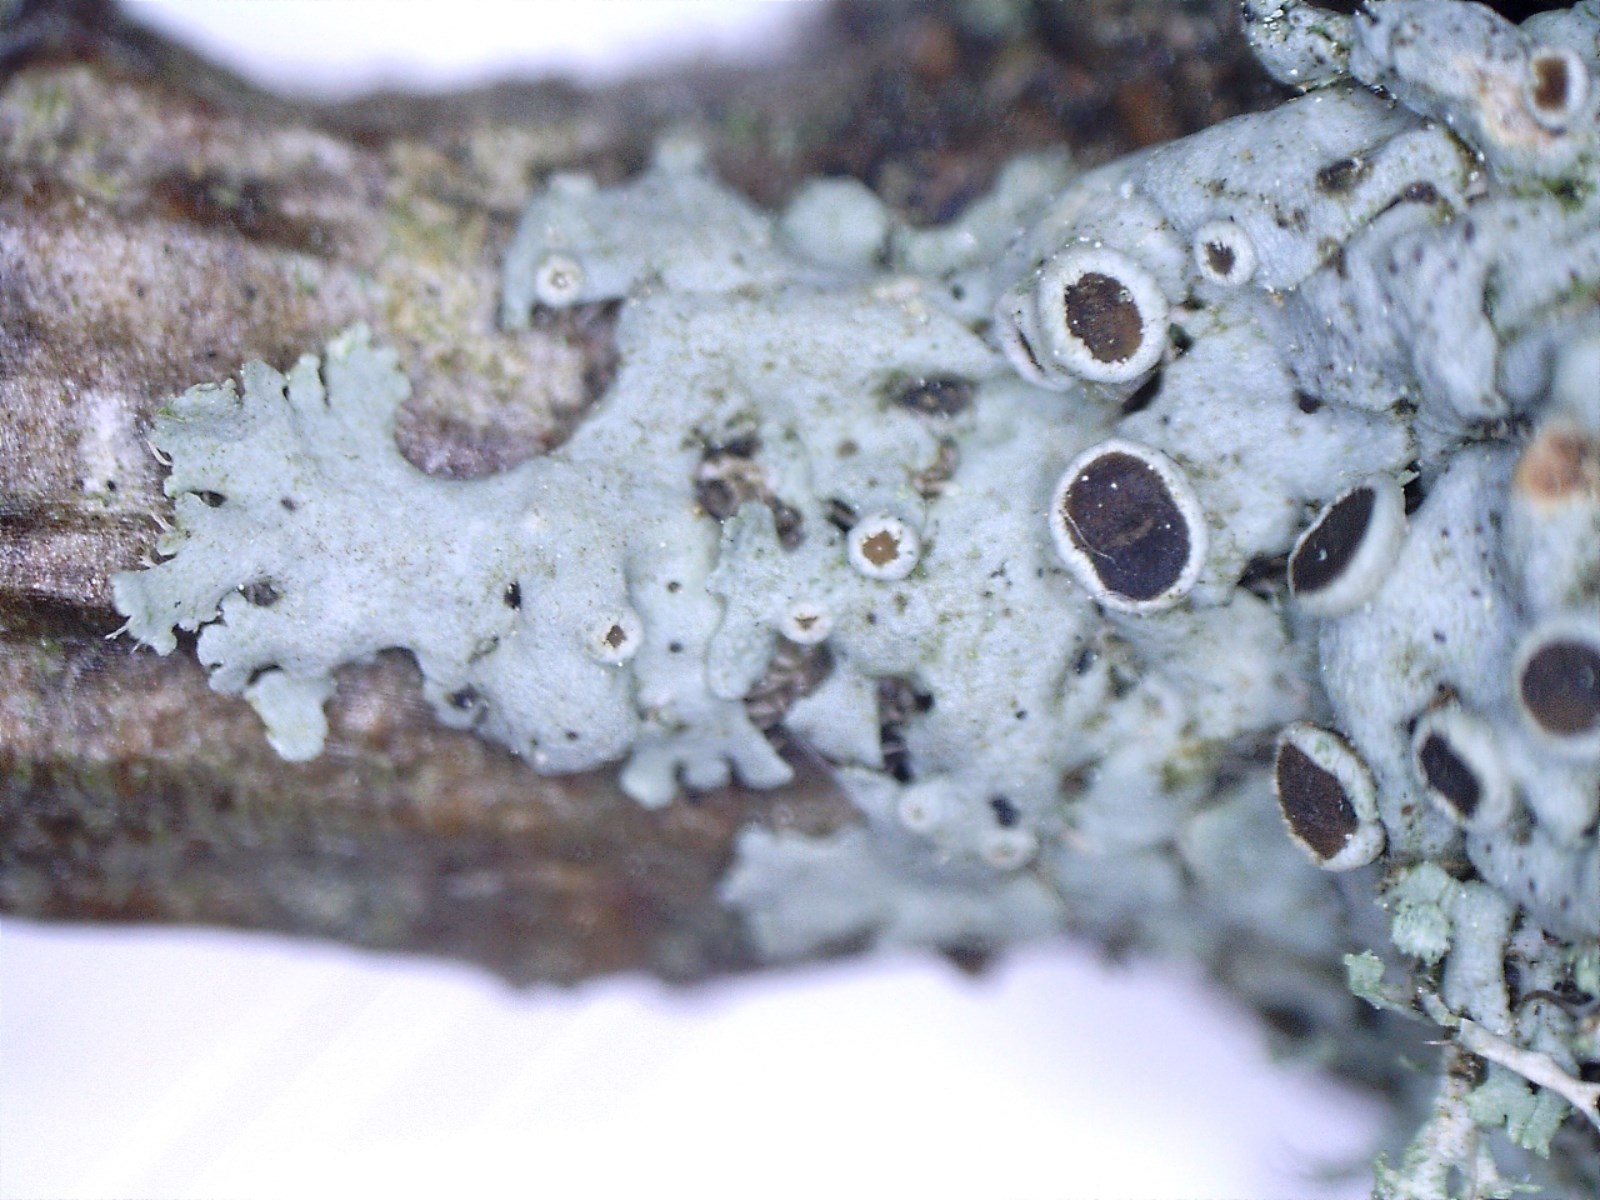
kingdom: Fungi
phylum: Ascomycota
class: Lecanoromycetes
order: Caliciales
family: Physciaceae
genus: Physcia
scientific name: Physcia aipolia
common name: hvidprikket rosetlav
